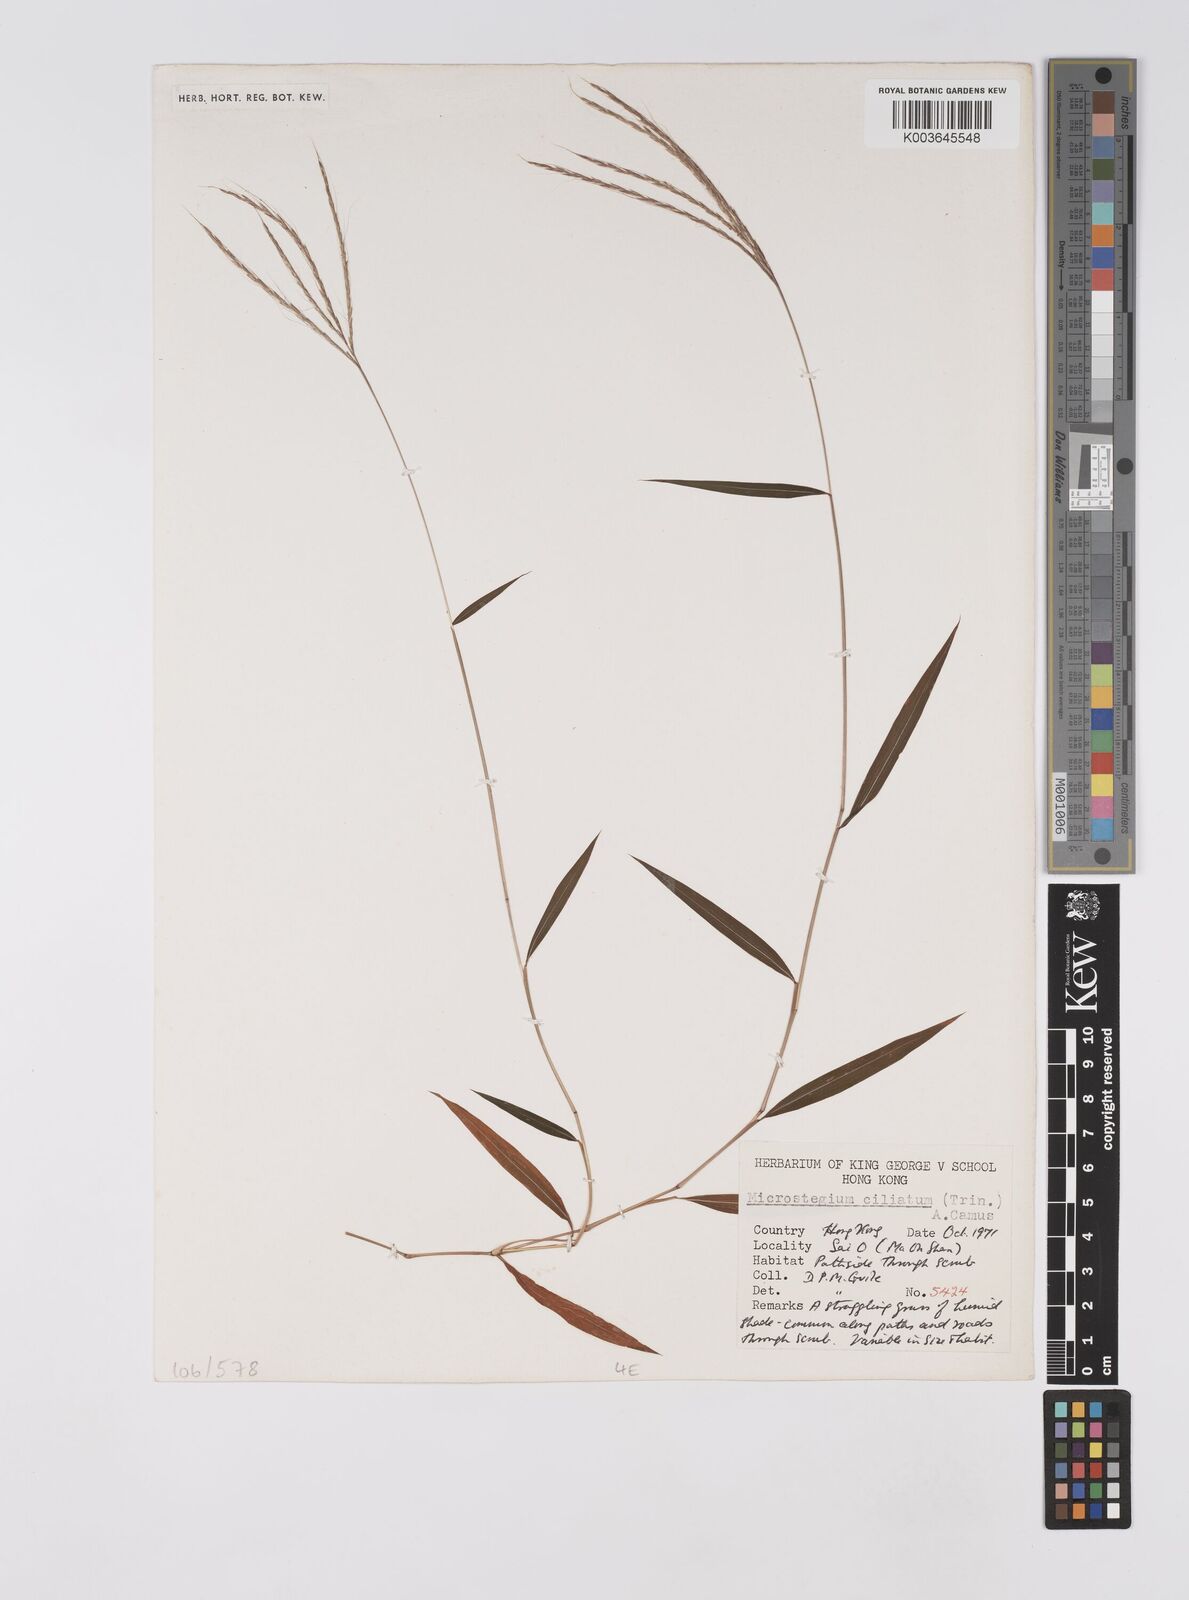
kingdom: Plantae
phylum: Tracheophyta
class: Liliopsida
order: Poales
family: Poaceae
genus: Microstegium
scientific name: Microstegium fasciculatum
